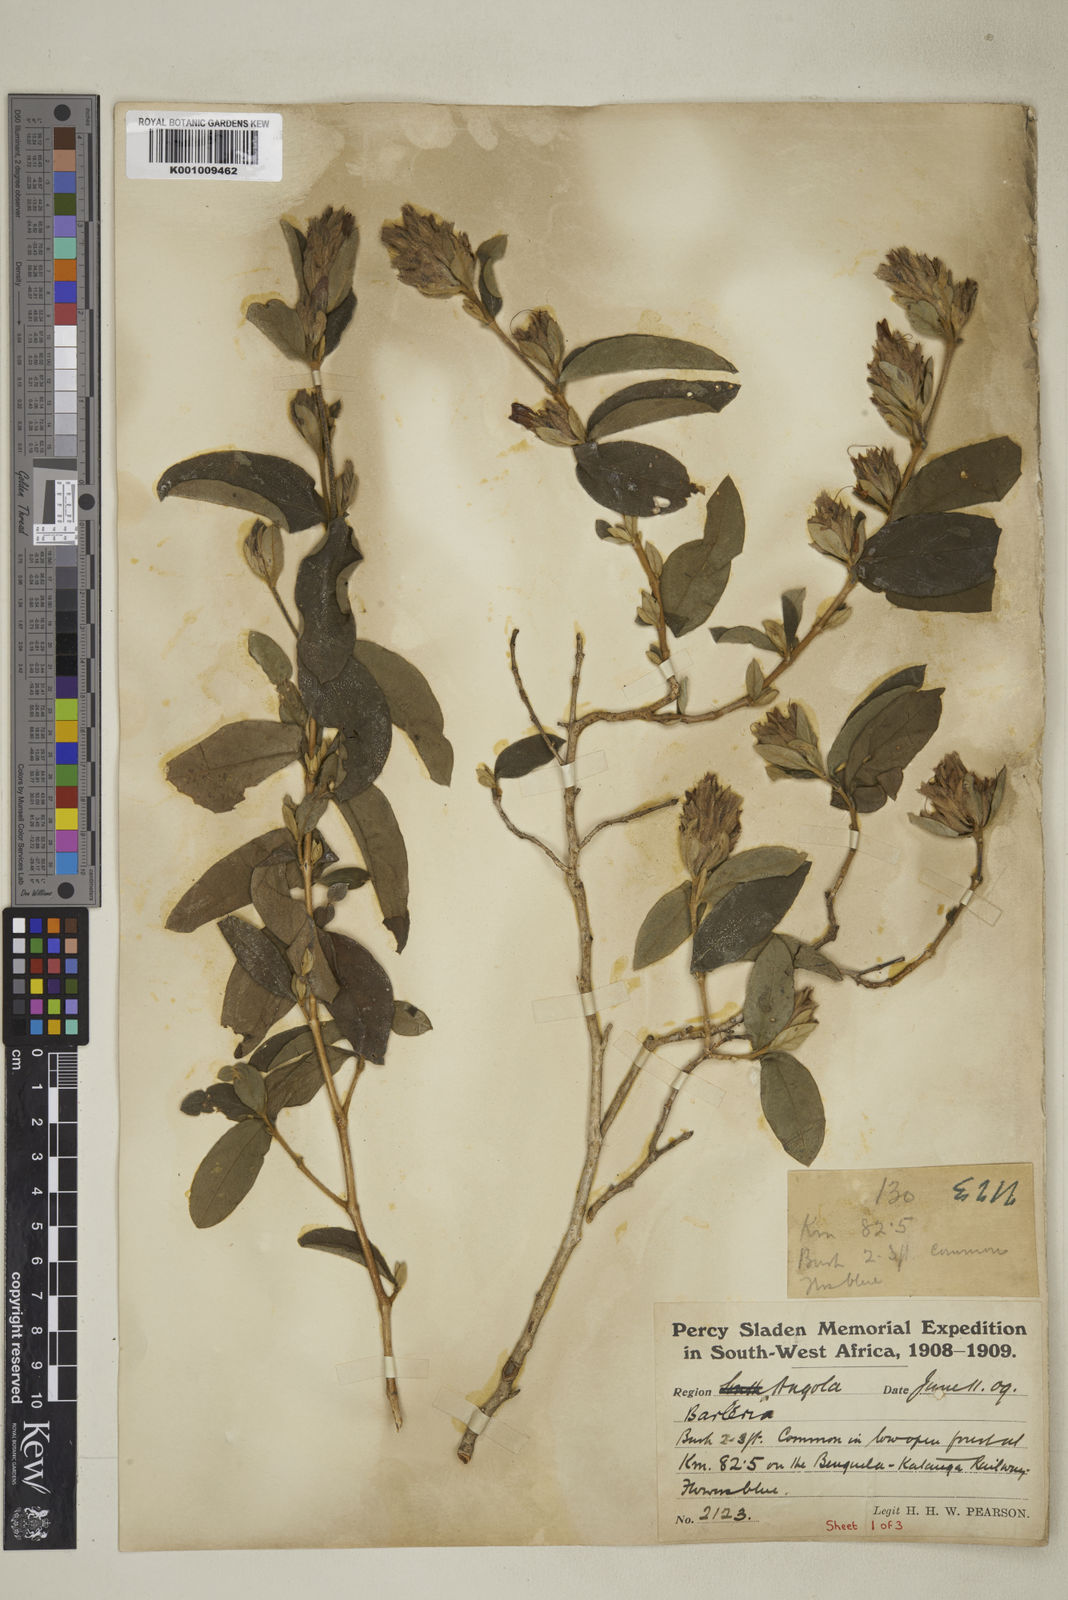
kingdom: Plantae
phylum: Tracheophyta
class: Magnoliopsida
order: Lamiales
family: Acanthaceae
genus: Barleria
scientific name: Barleria taitensis
